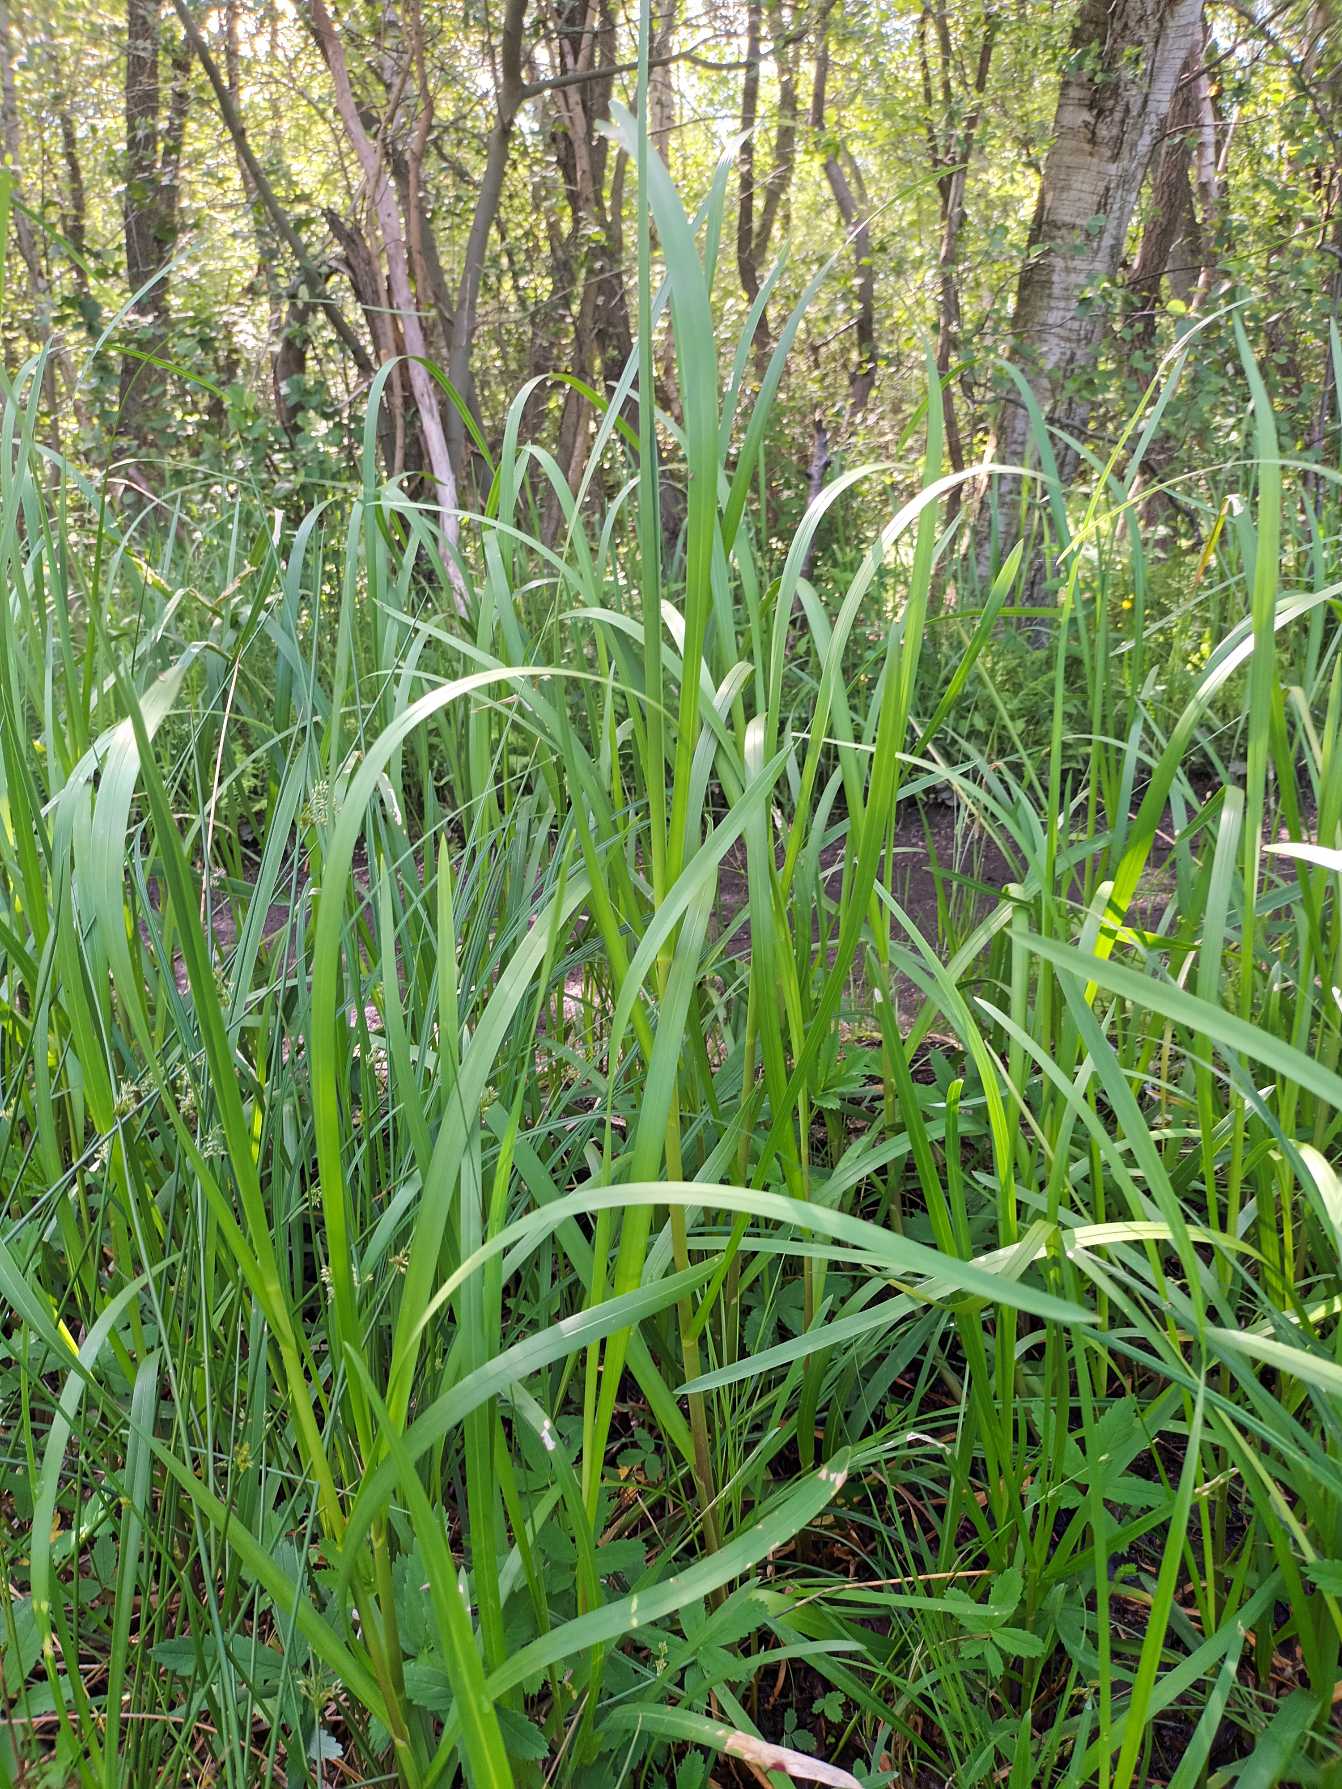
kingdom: Plantae
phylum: Tracheophyta
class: Liliopsida
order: Poales
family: Poaceae
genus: Glyceria
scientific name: Glyceria maxima
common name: Høj sødgræs
